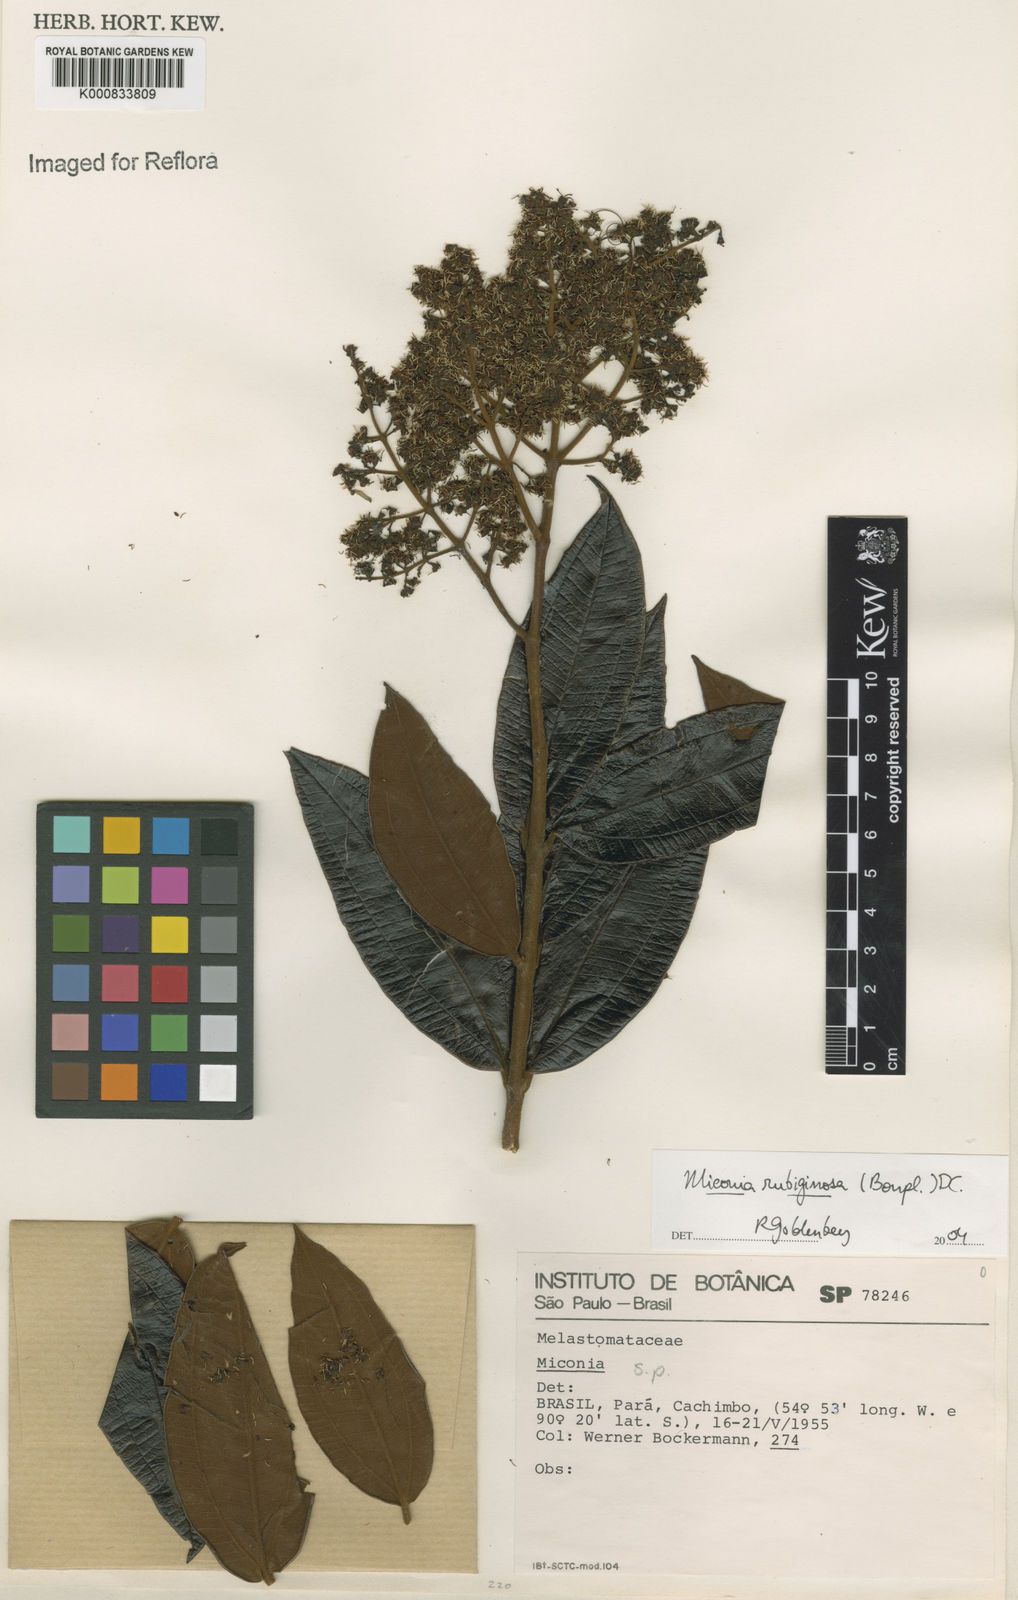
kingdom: Plantae
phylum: Tracheophyta
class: Magnoliopsida
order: Myrtales
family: Melastomataceae
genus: Miconia
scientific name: Miconia rubiginosa
